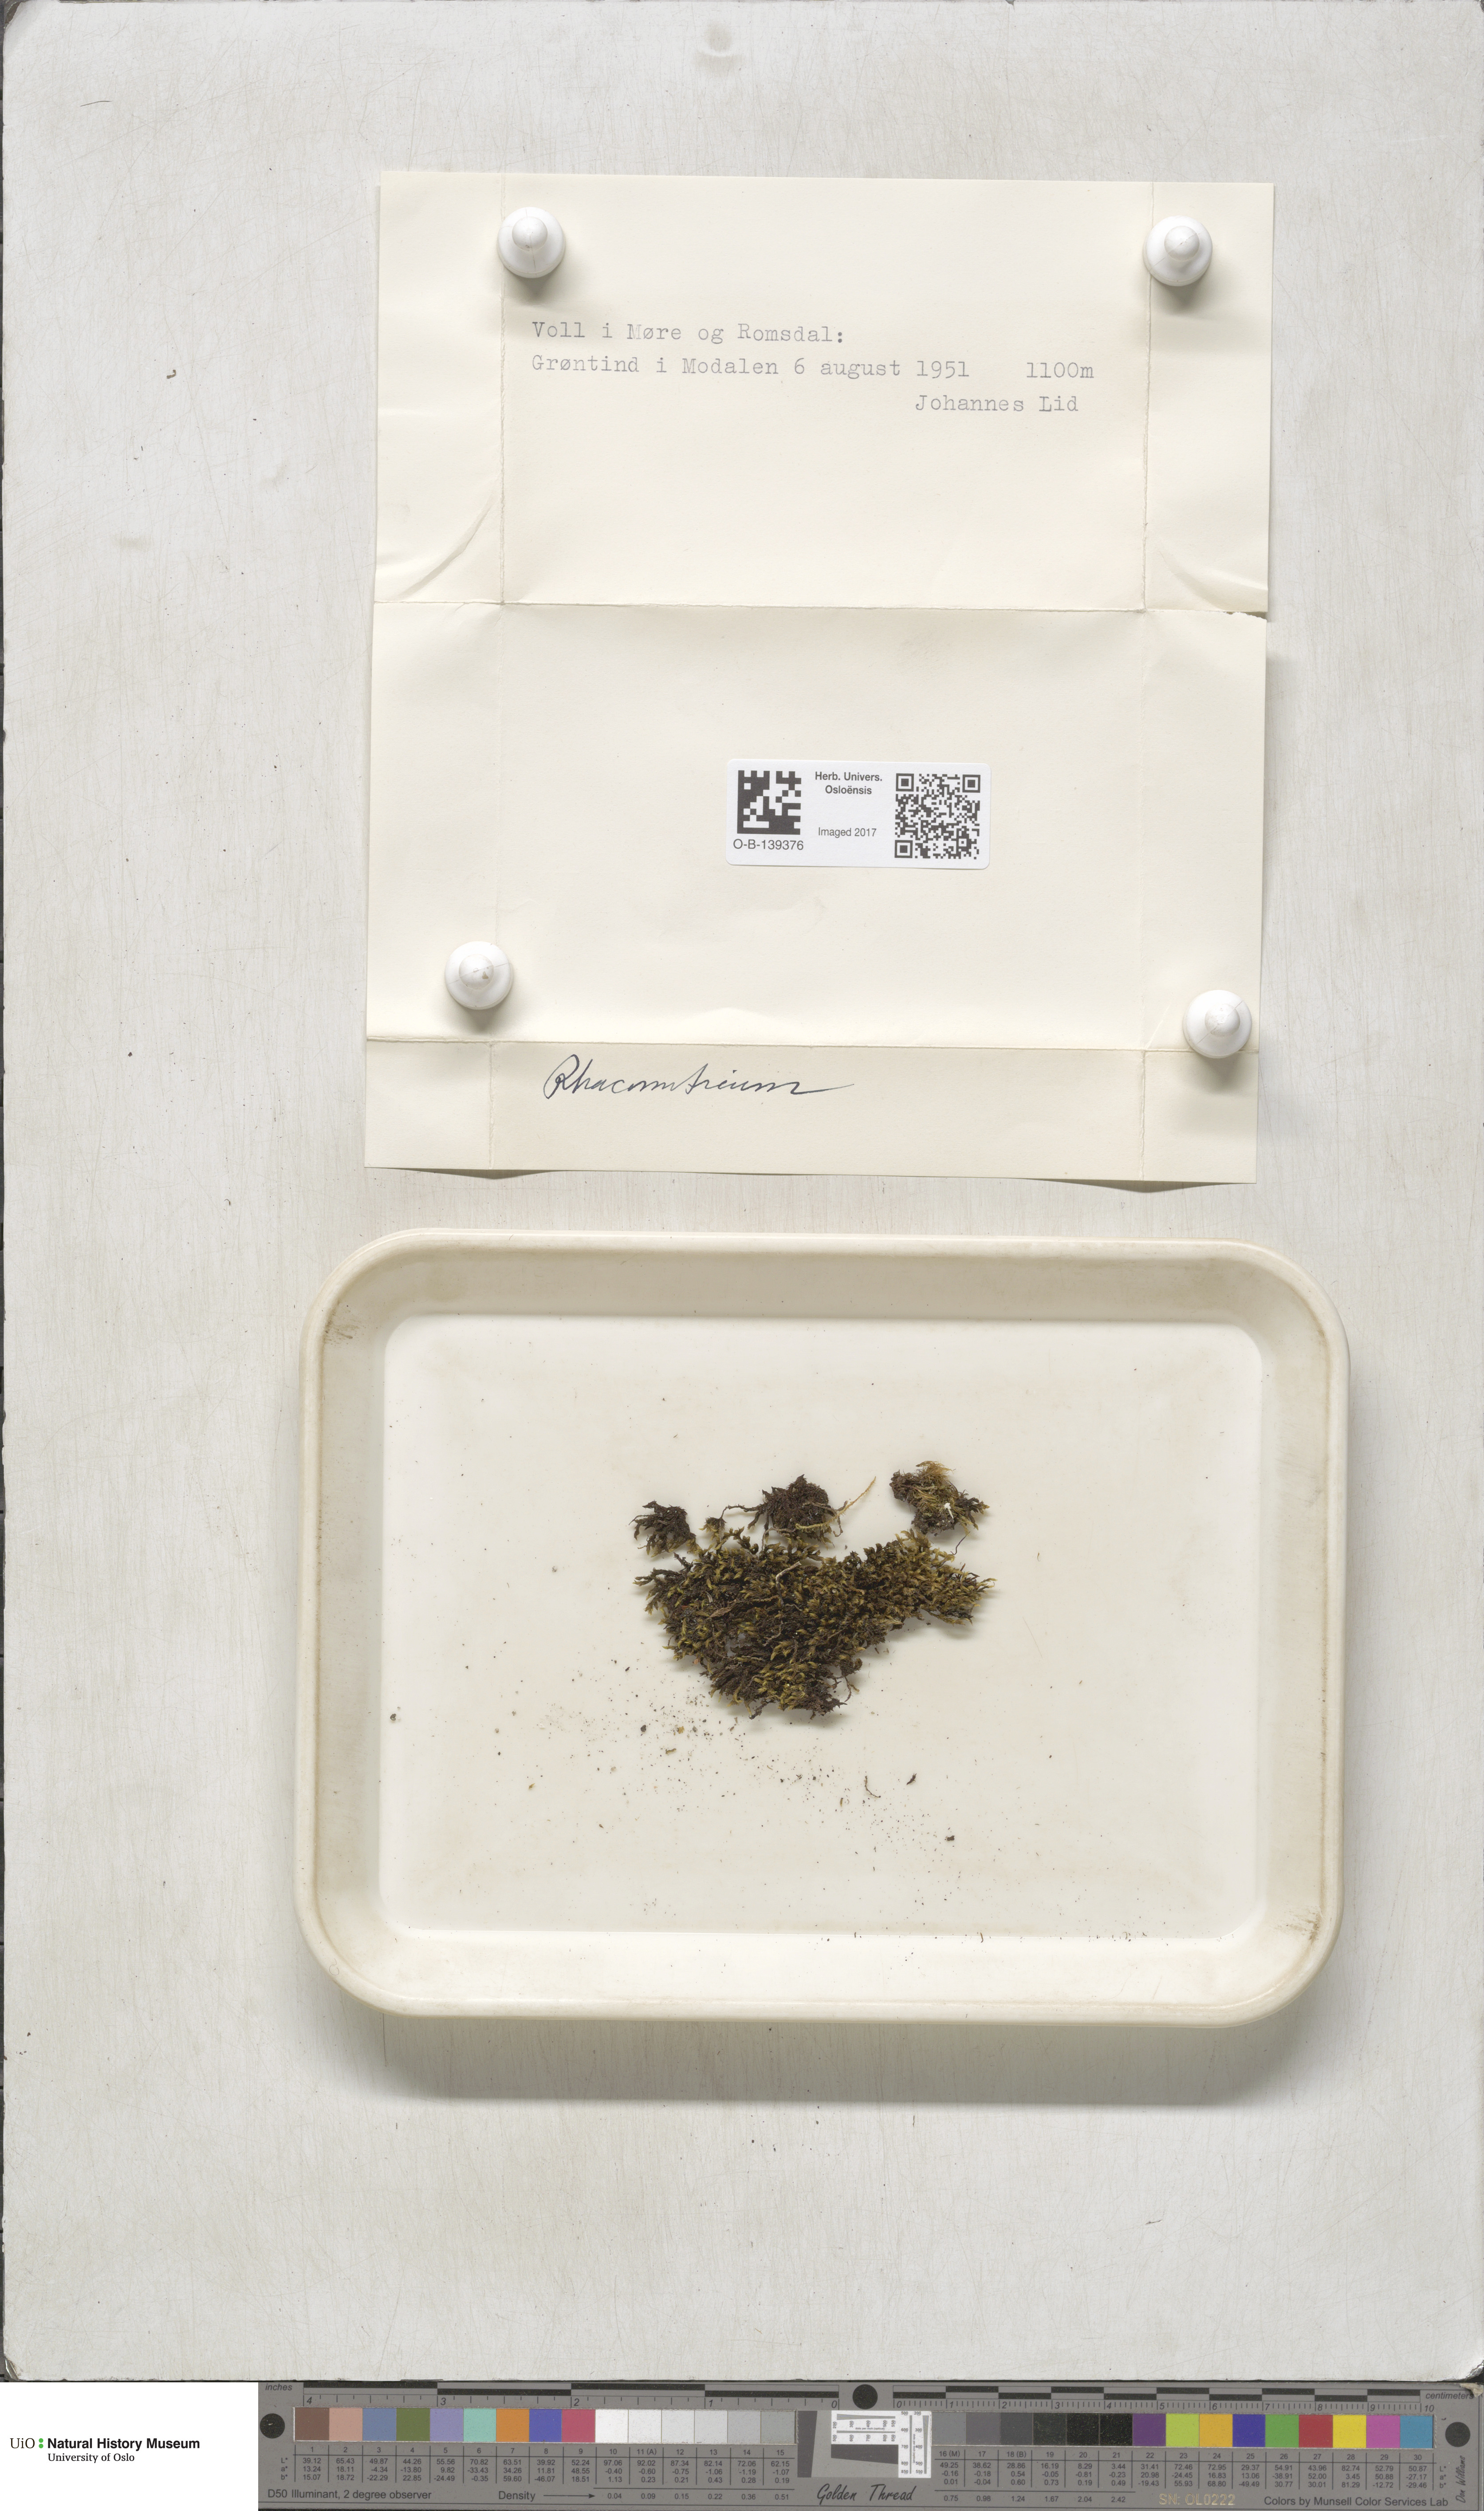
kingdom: Plantae
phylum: Bryophyta
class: Bryopsida
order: Grimmiales
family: Grimmiaceae
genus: Racomitrium
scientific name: Racomitrium
